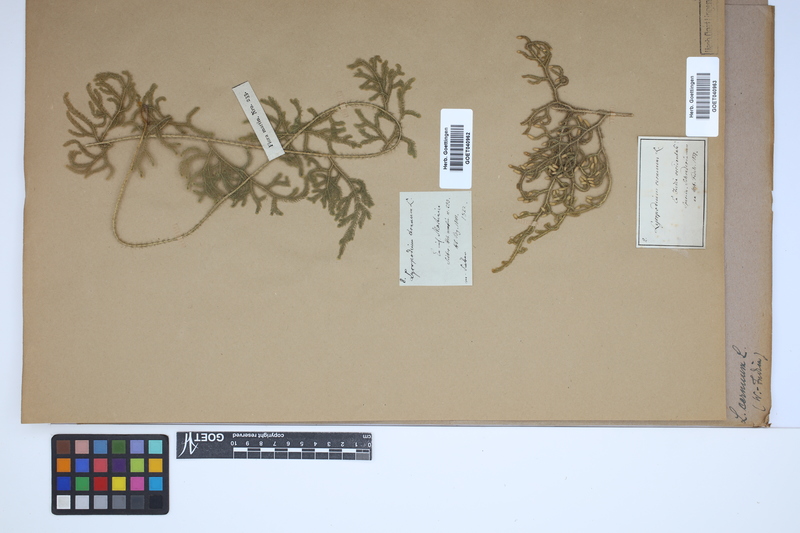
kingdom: Plantae
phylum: Tracheophyta
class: Lycopodiopsida
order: Lycopodiales
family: Lycopodiaceae
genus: Palhinhaea
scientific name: Palhinhaea cernua
